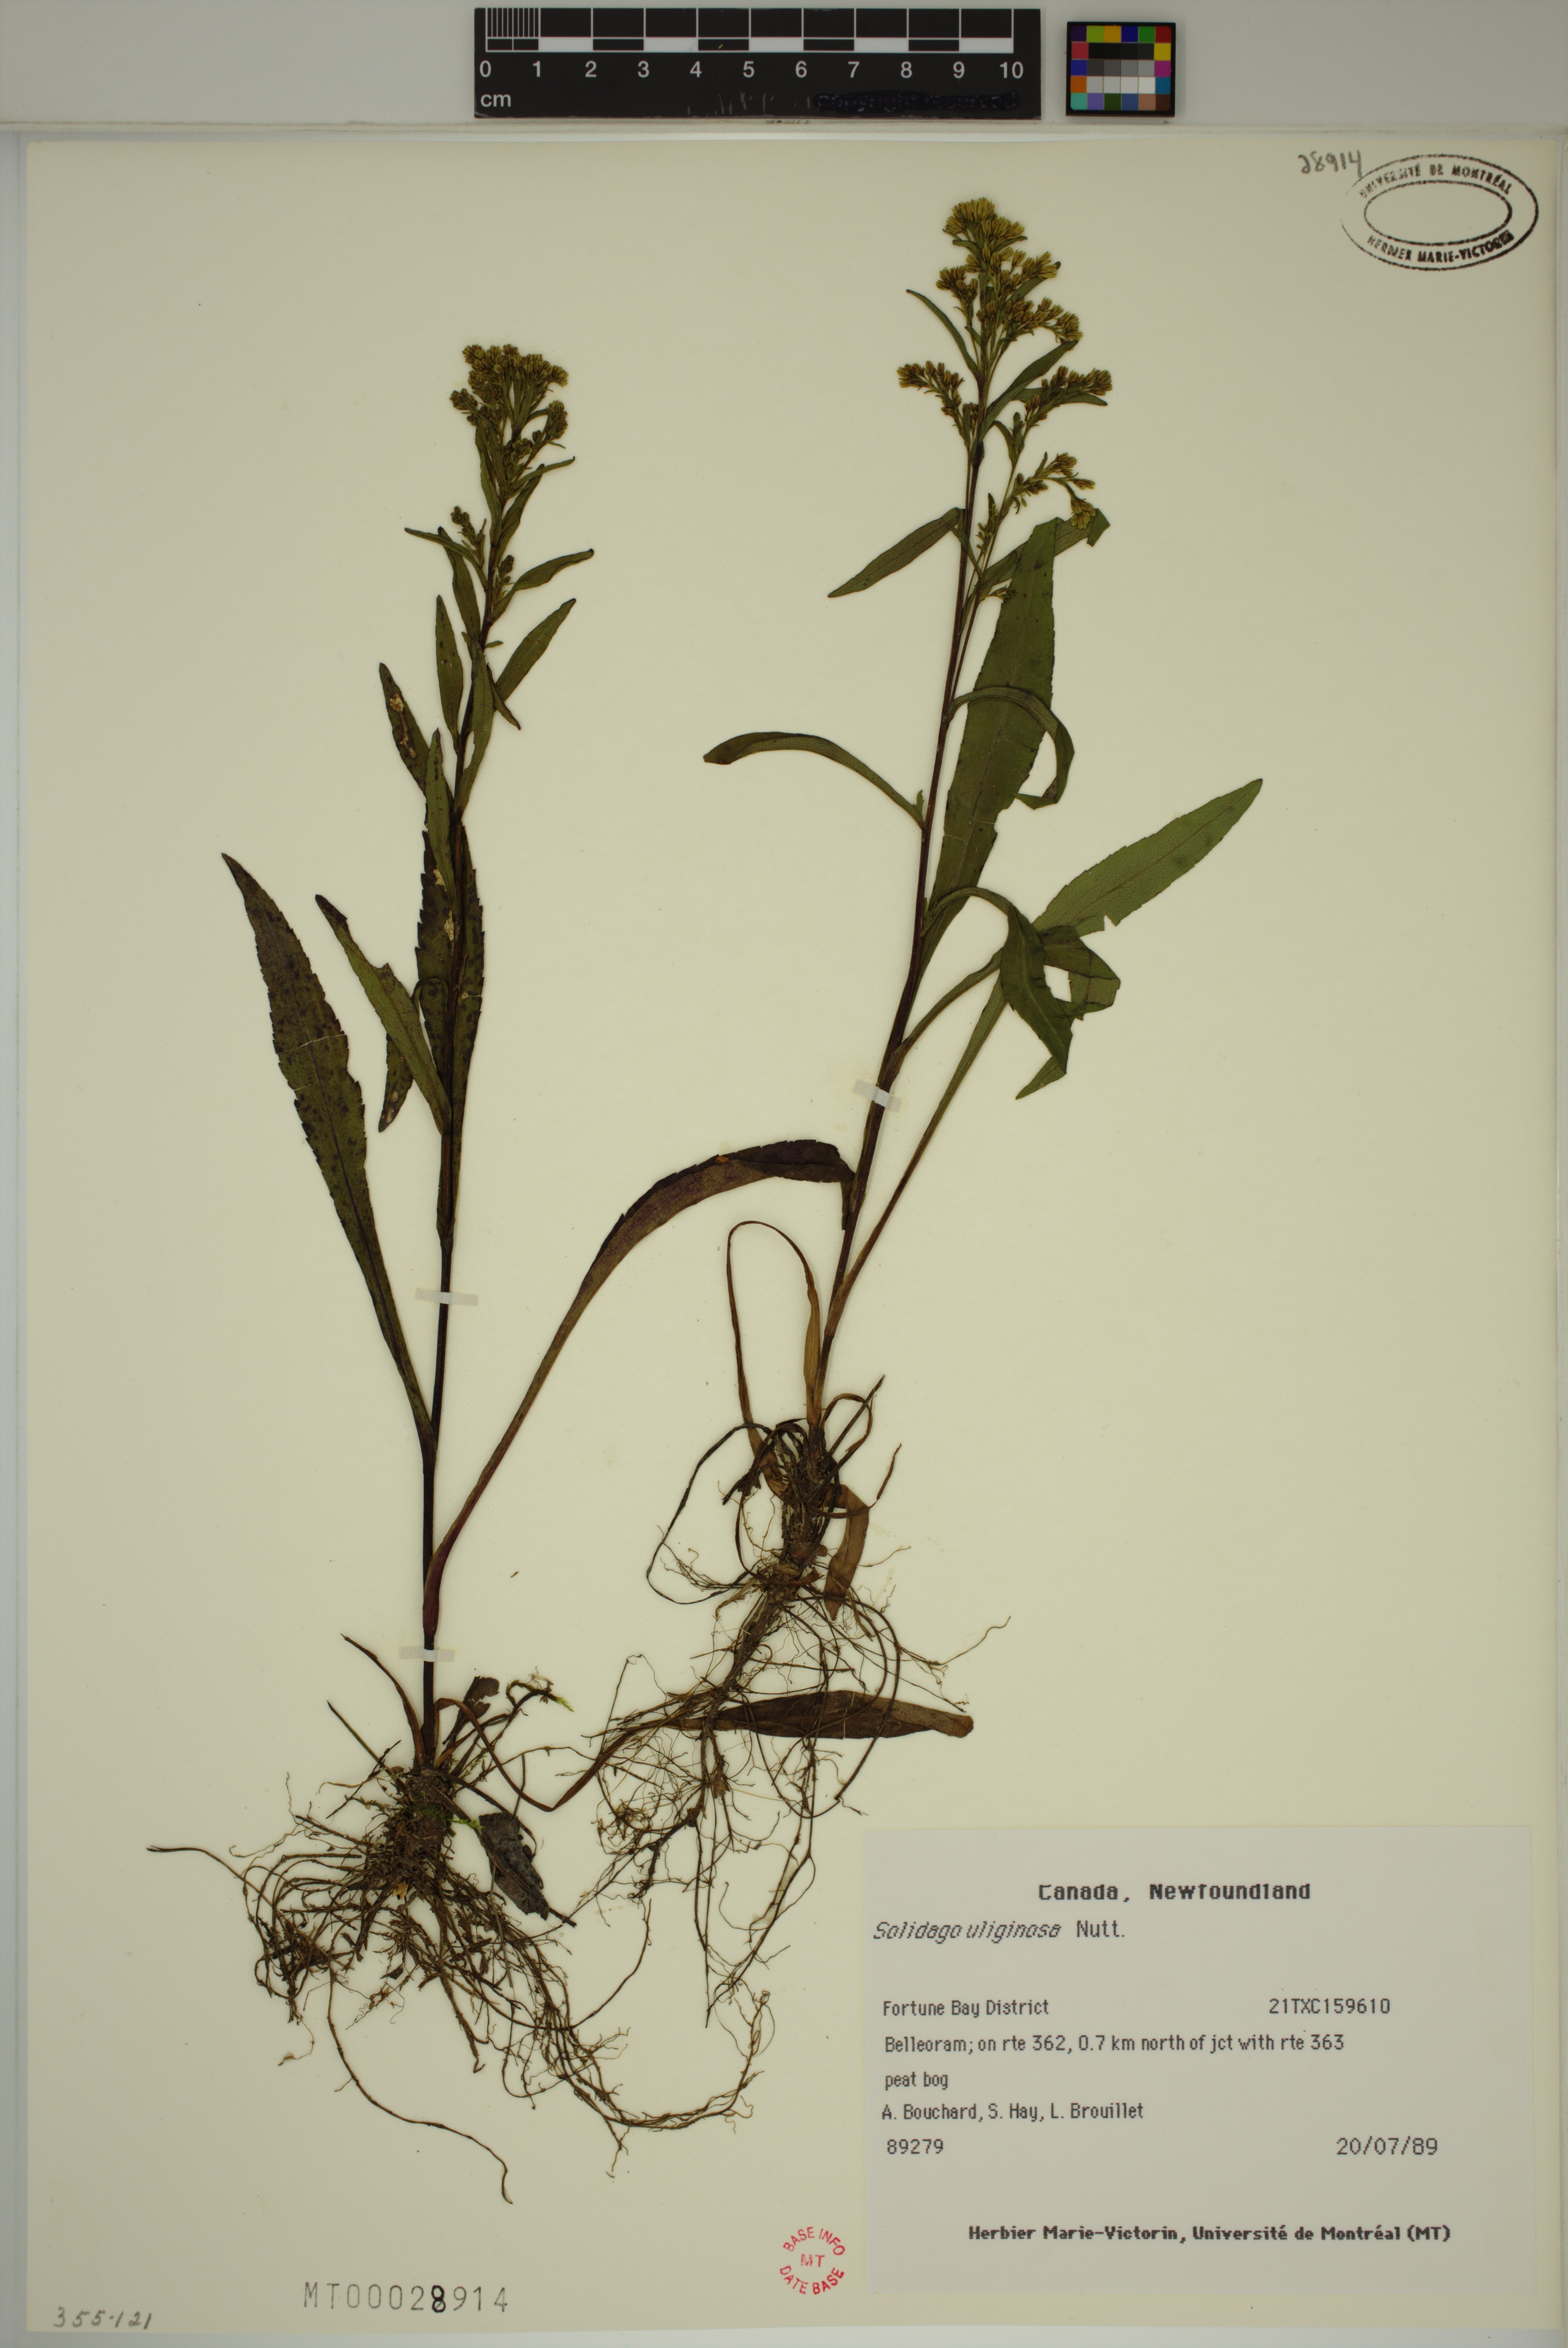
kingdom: Plantae
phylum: Tracheophyta
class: Magnoliopsida
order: Asterales
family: Asteraceae
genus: Solidago
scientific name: Solidago uliginosa
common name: Bog goldenrod
